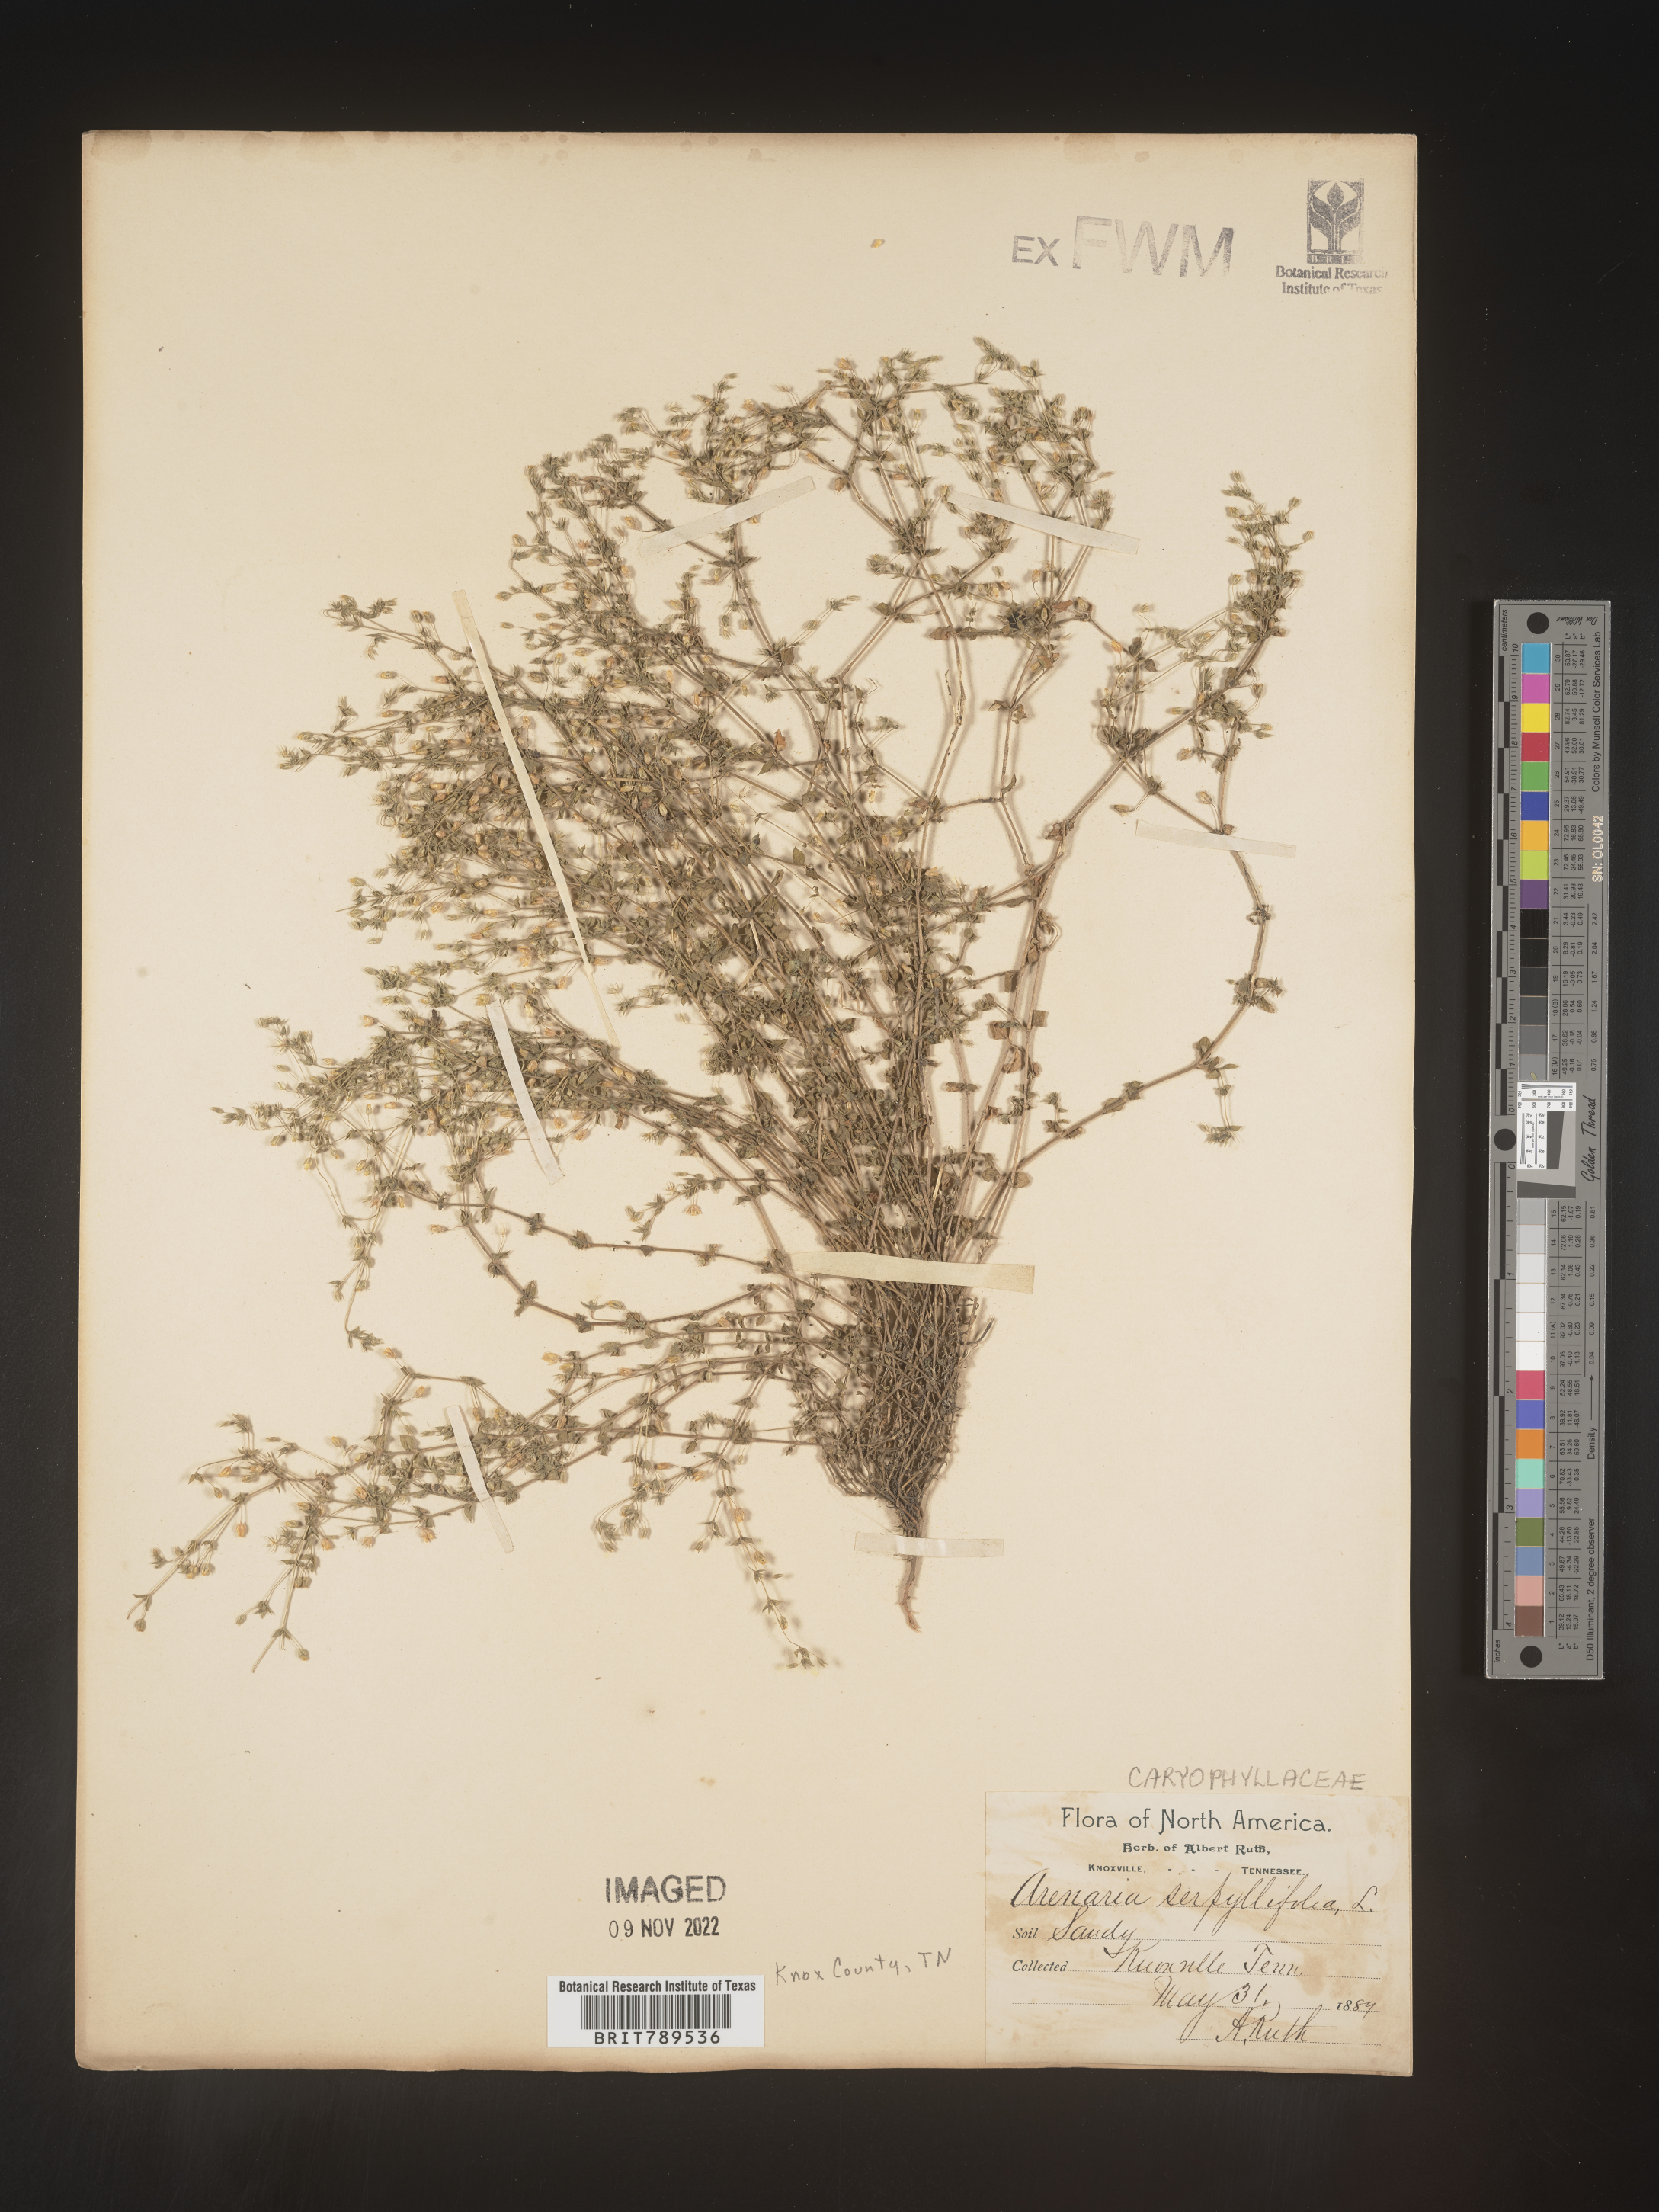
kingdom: Plantae
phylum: Tracheophyta
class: Magnoliopsida
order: Caryophyllales
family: Caryophyllaceae
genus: Arenaria
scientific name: Arenaria serpyllifolia
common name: Thyme-leaved sandwort
